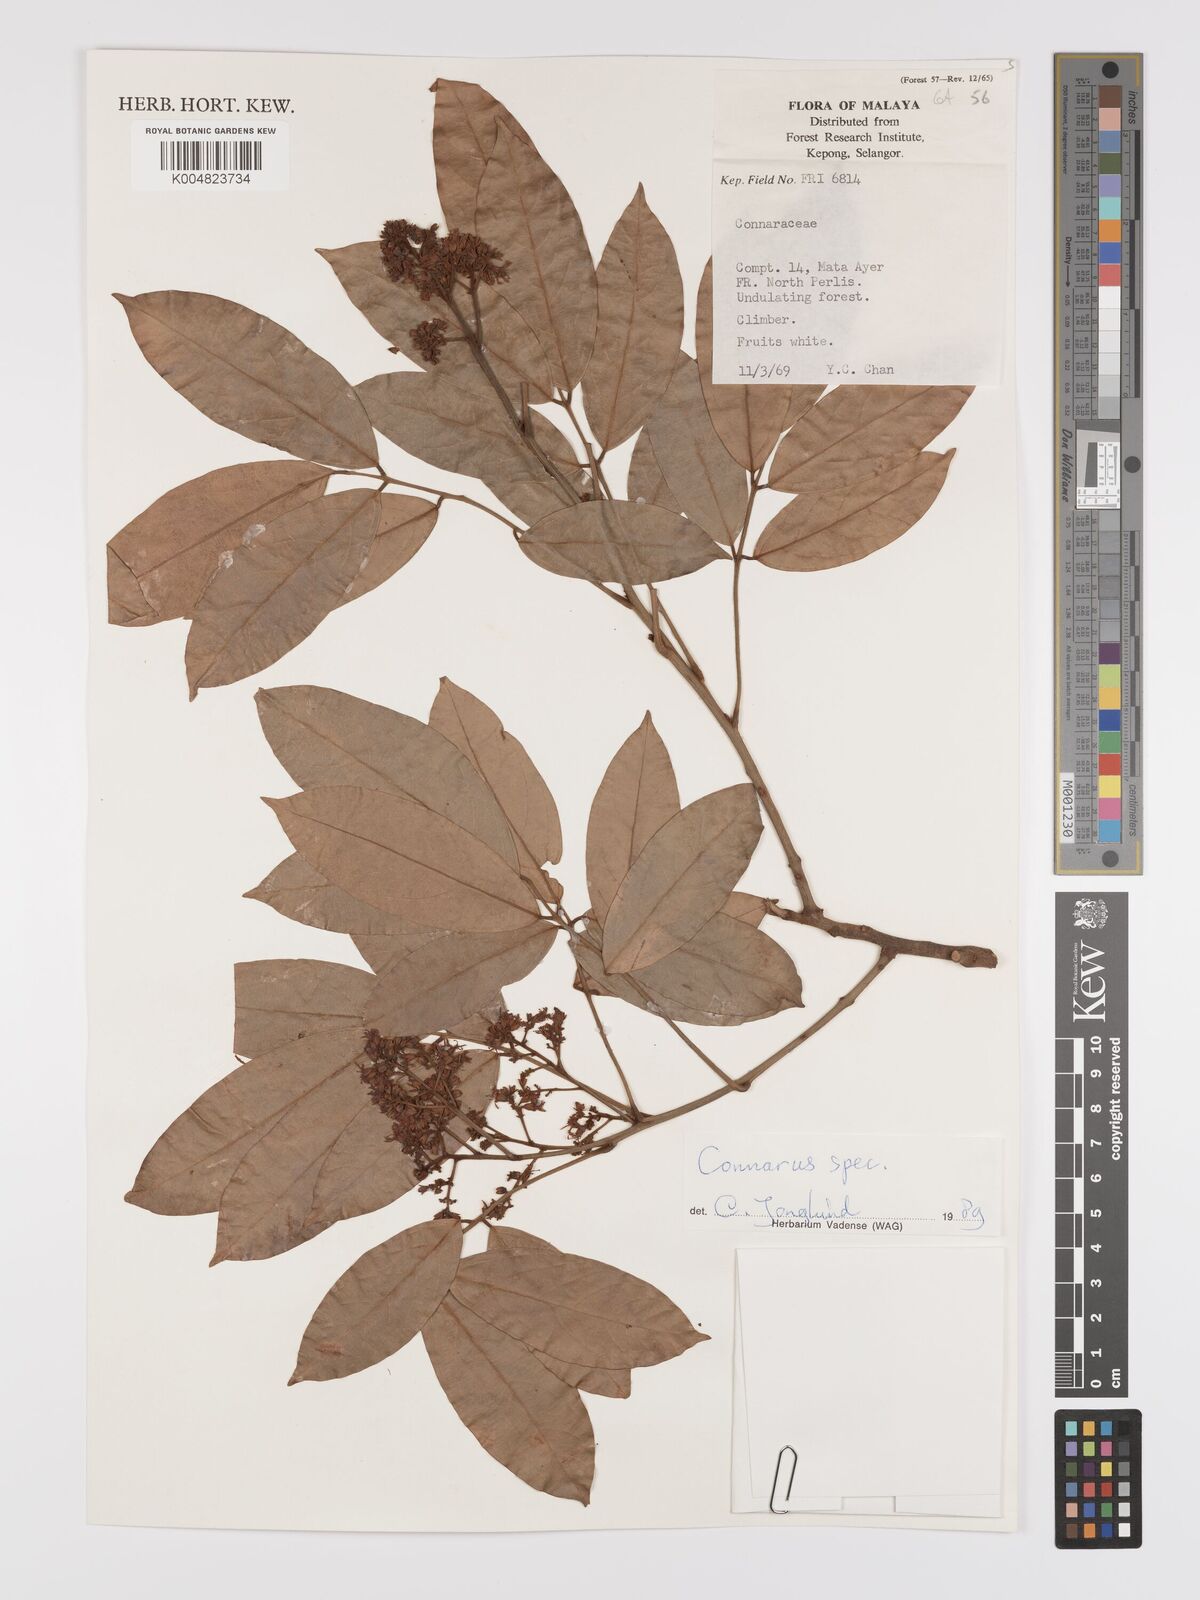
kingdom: Plantae
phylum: Tracheophyta
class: Magnoliopsida
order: Oxalidales
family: Connaraceae
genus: Connarus
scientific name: Connarus
